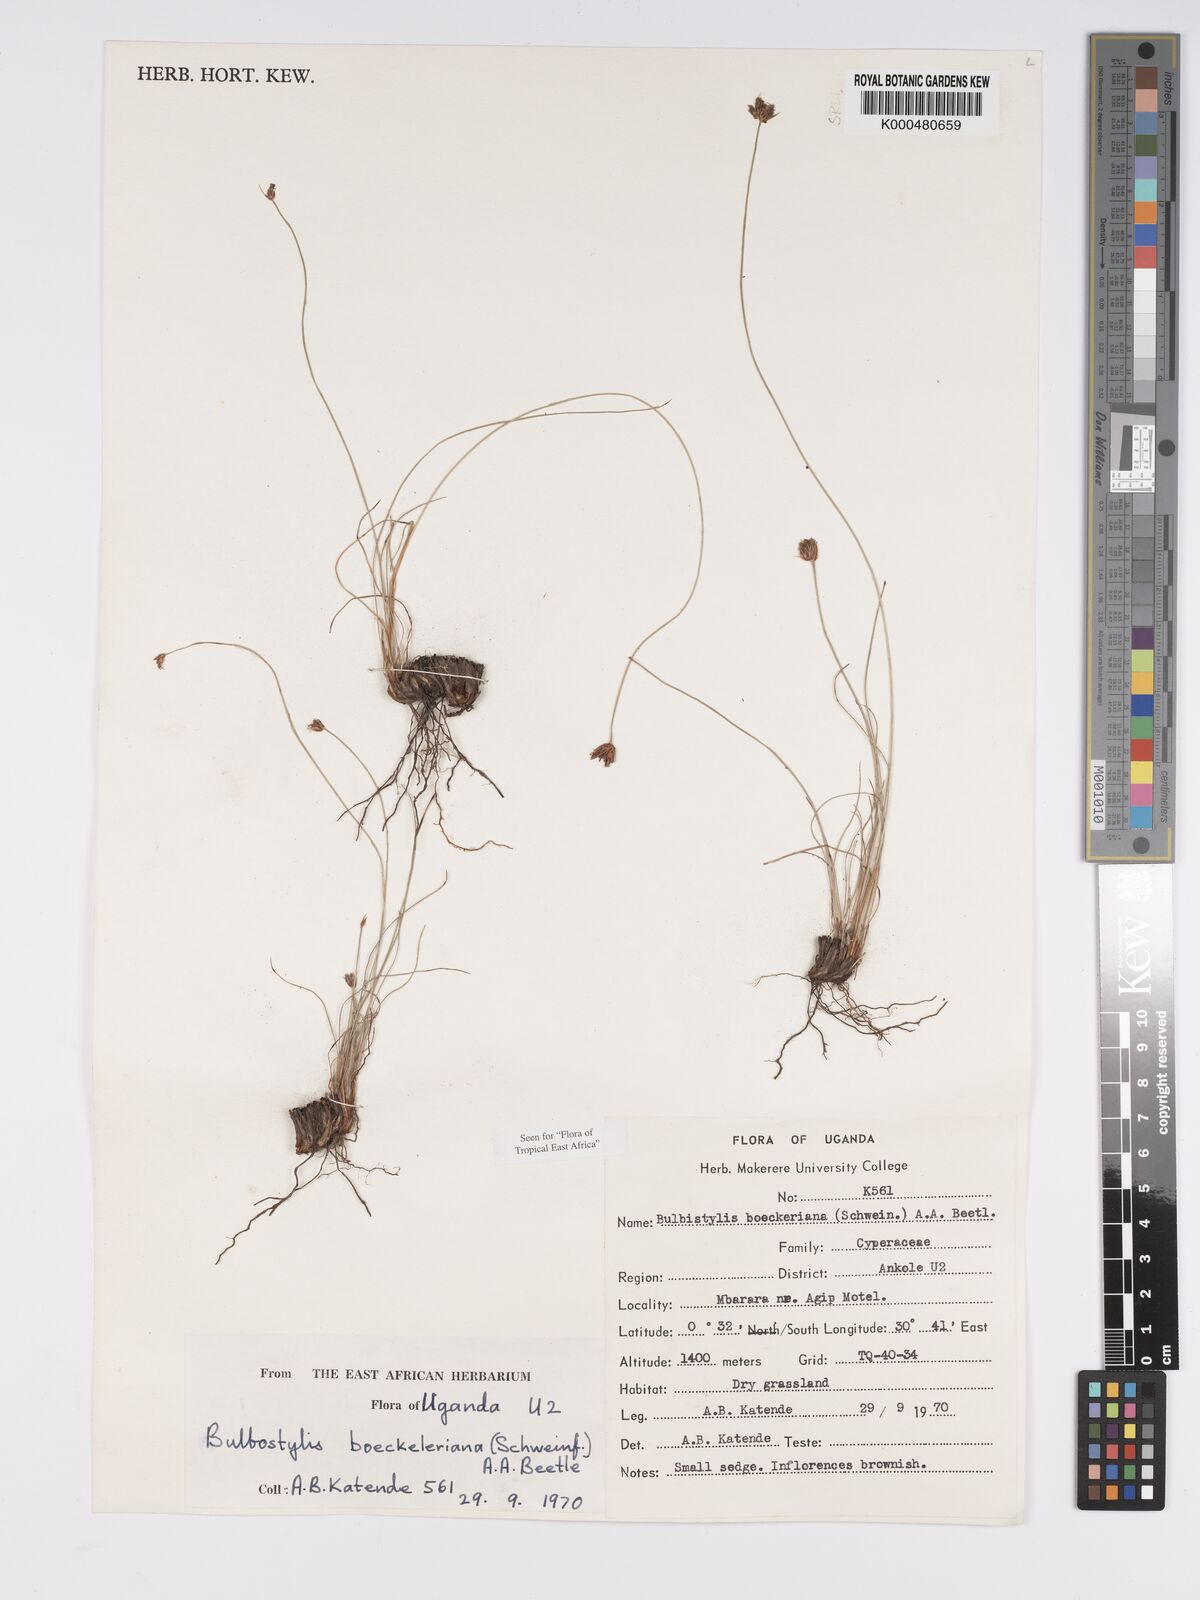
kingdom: Plantae
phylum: Tracheophyta
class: Liliopsida
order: Poales
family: Cyperaceae
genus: Bulbostylis
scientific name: Bulbostylis boeckeleriana
